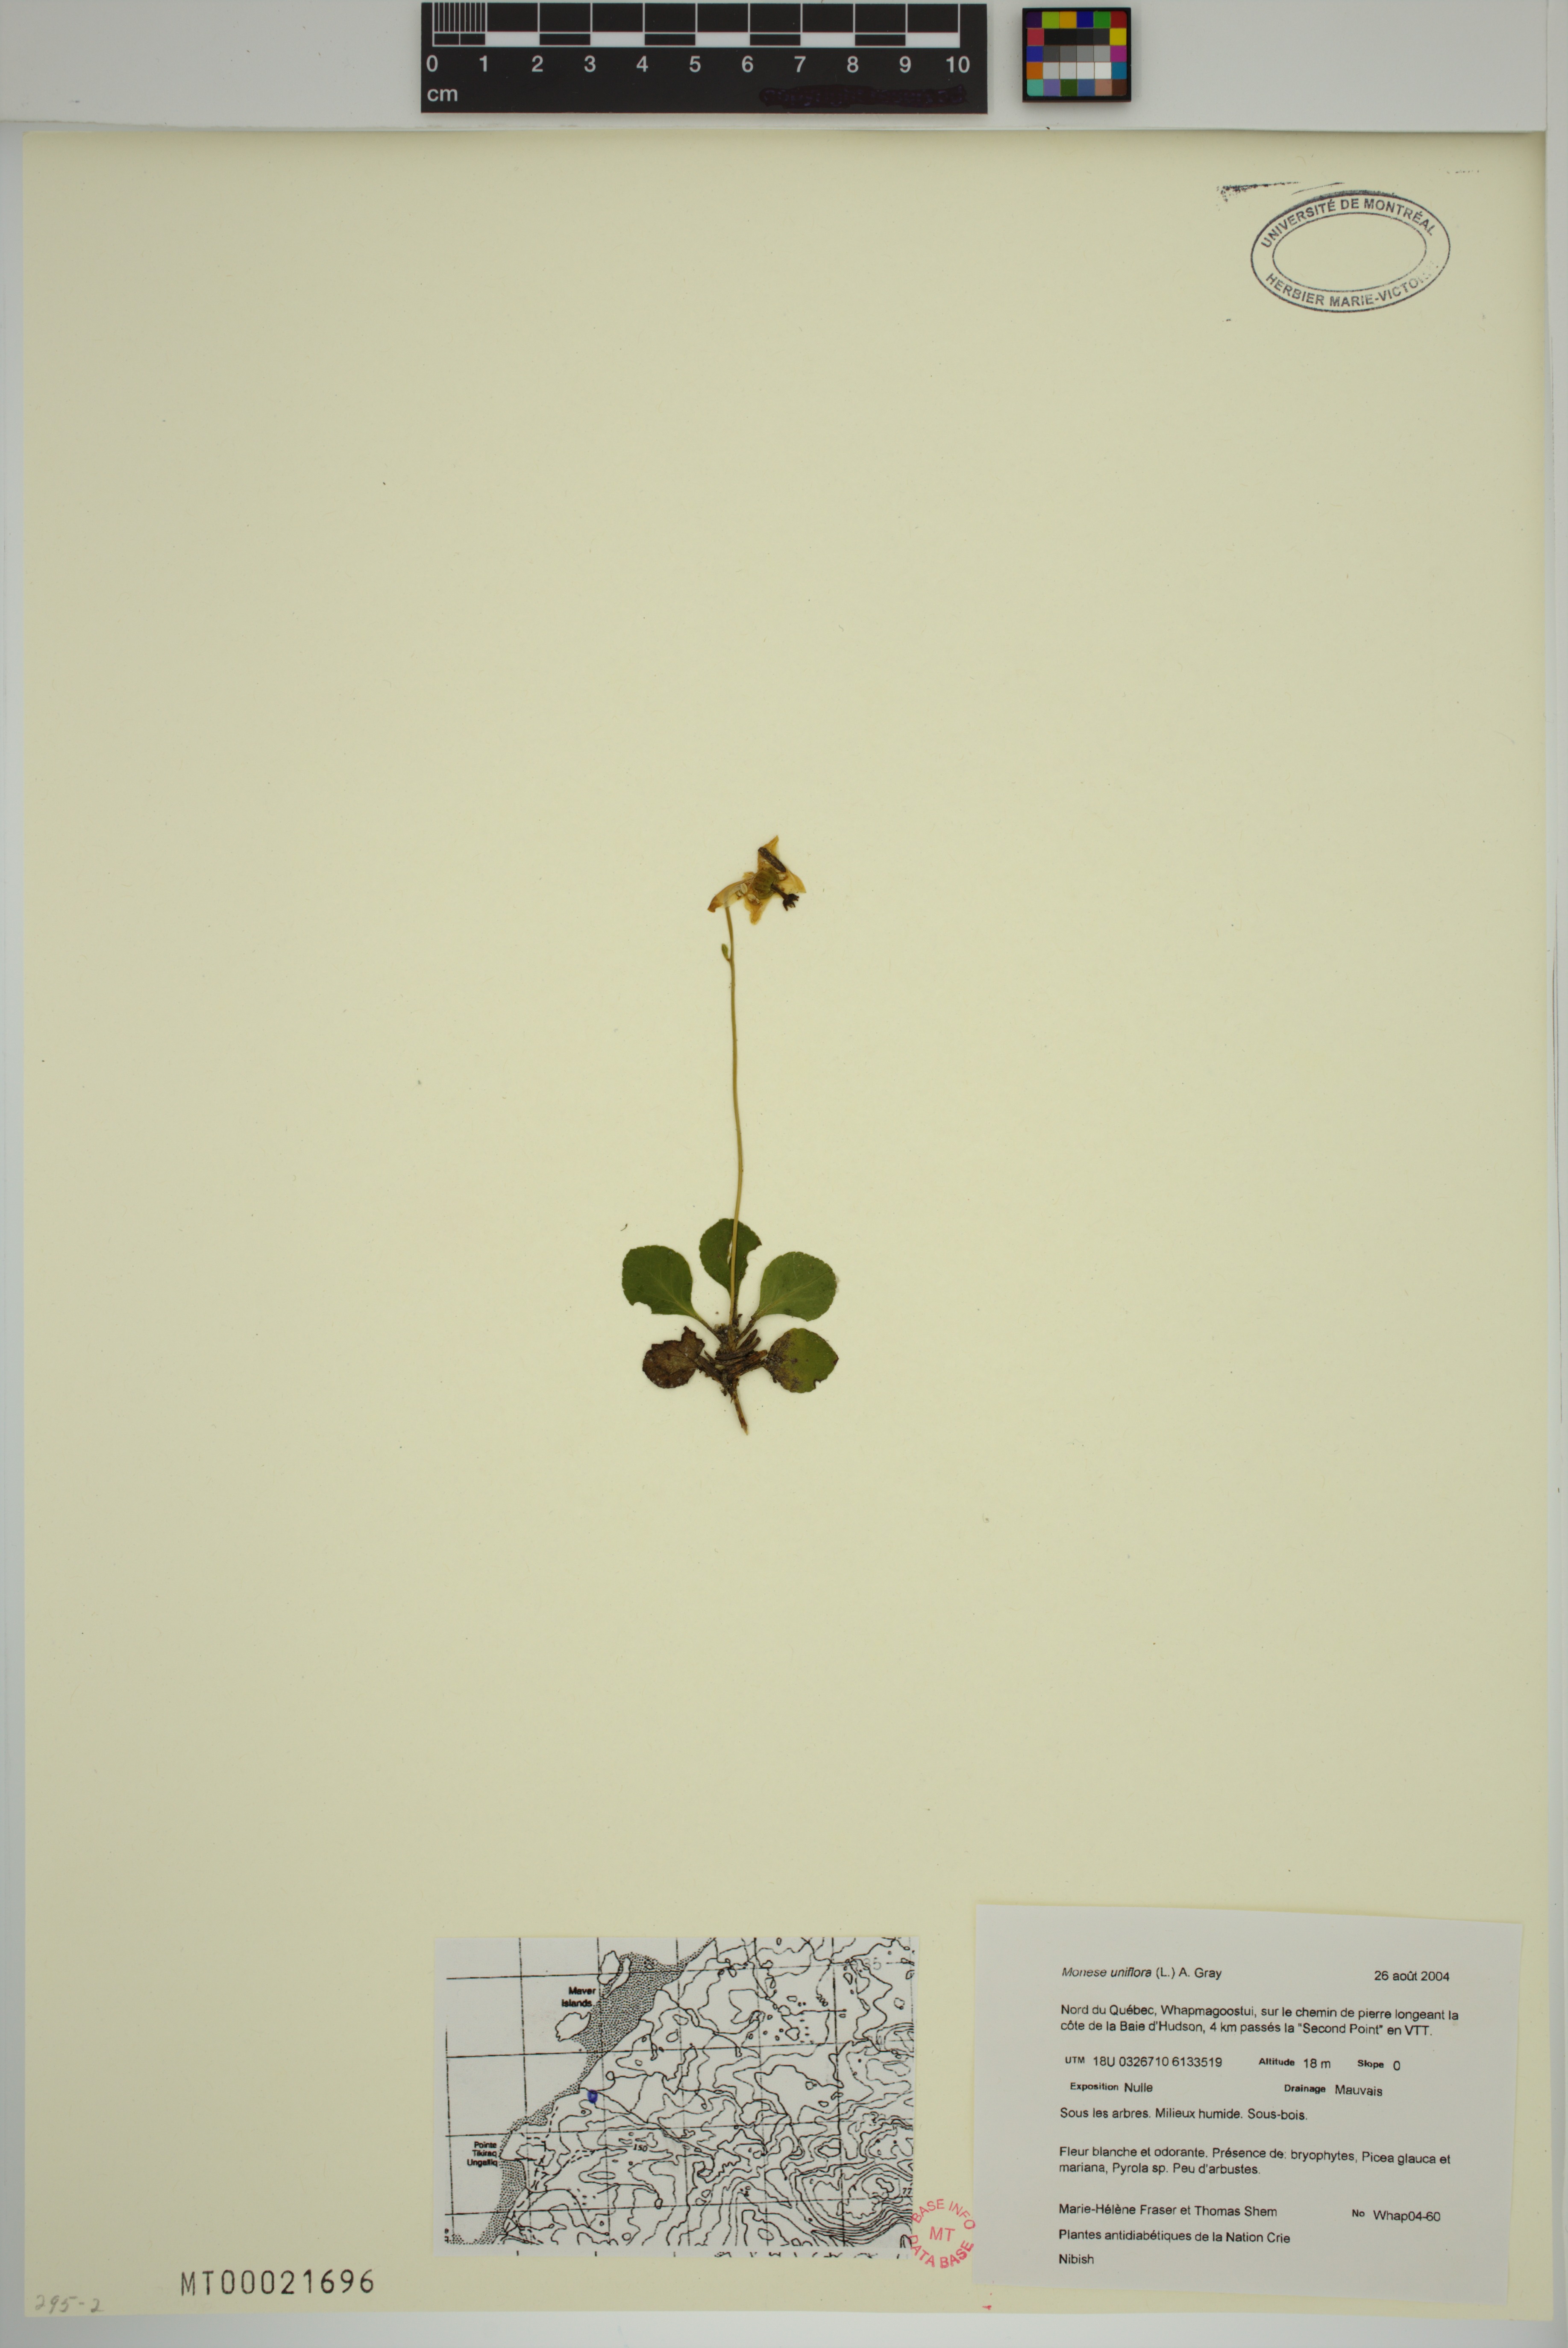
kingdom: Plantae
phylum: Tracheophyta
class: Magnoliopsida
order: Ericales
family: Ericaceae
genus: Moneses
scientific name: Moneses uniflora
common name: One-flowered wintergreen
